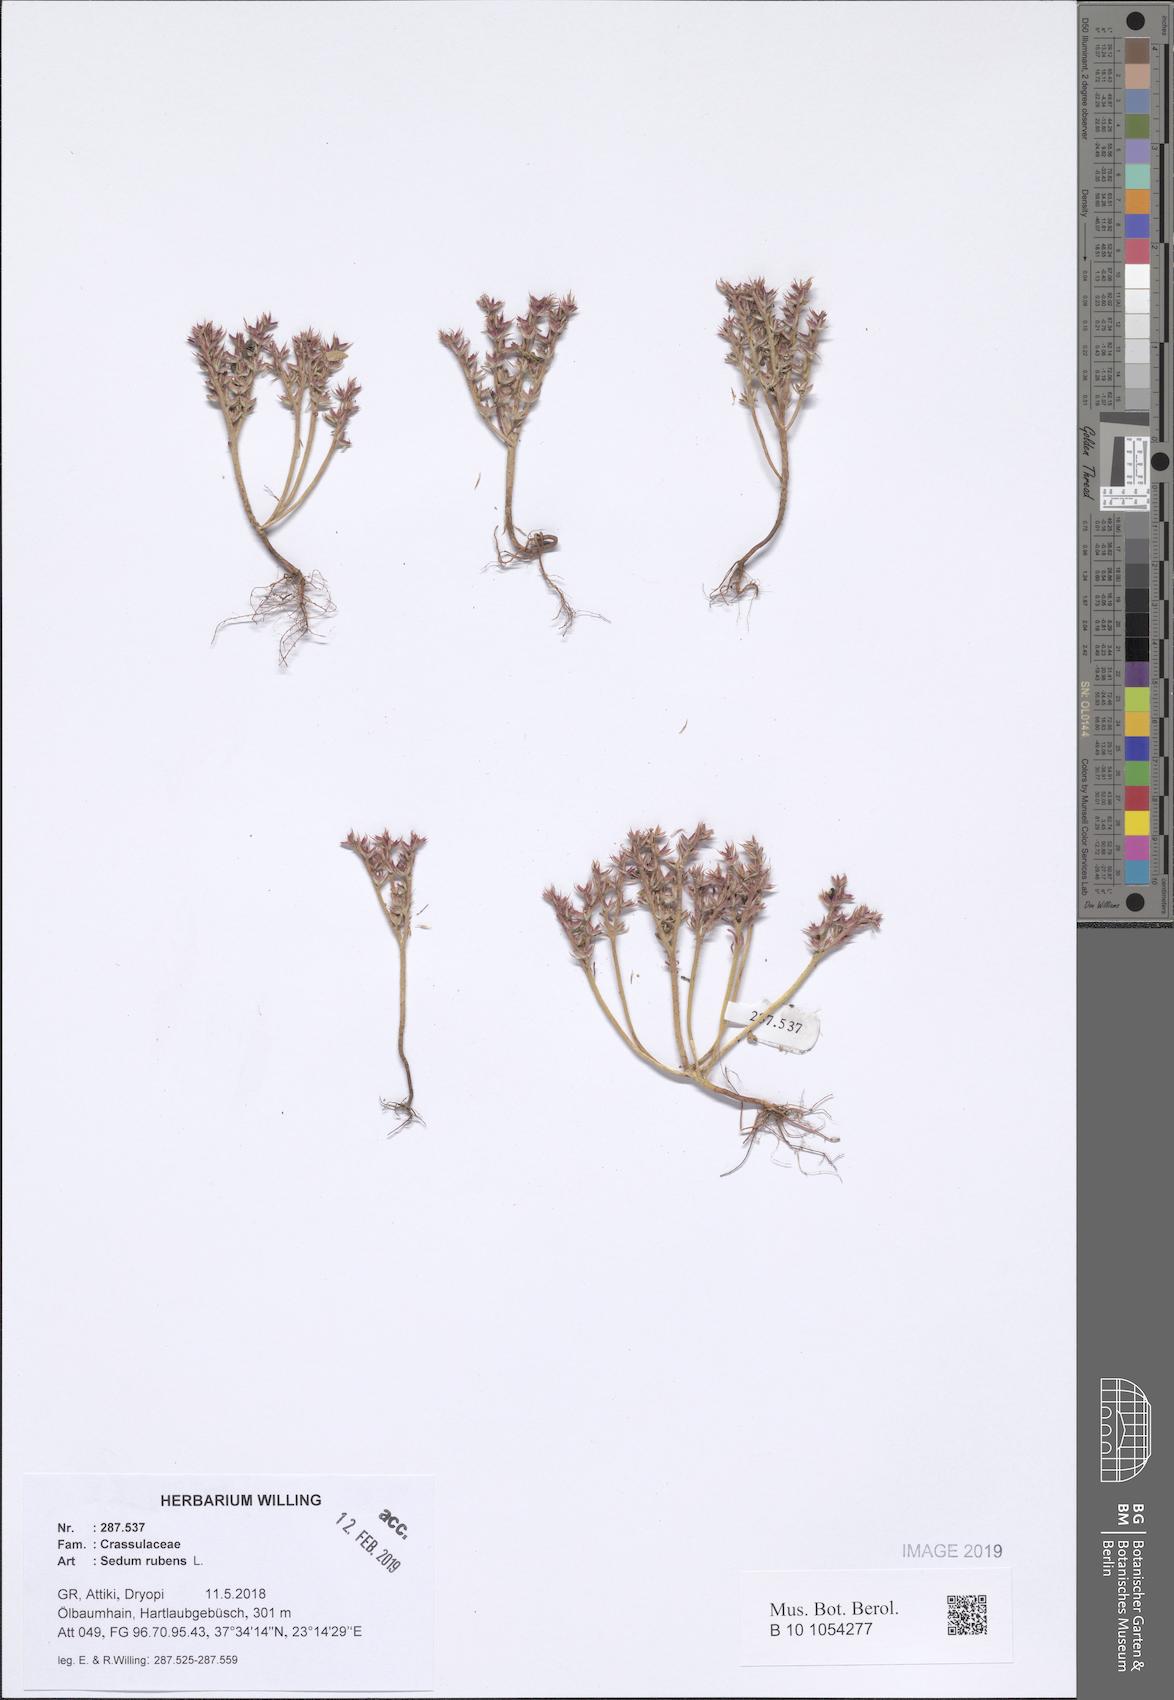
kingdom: Plantae
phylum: Tracheophyta
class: Magnoliopsida
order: Saxifragales
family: Crassulaceae
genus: Sedum
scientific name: Sedum rubens
